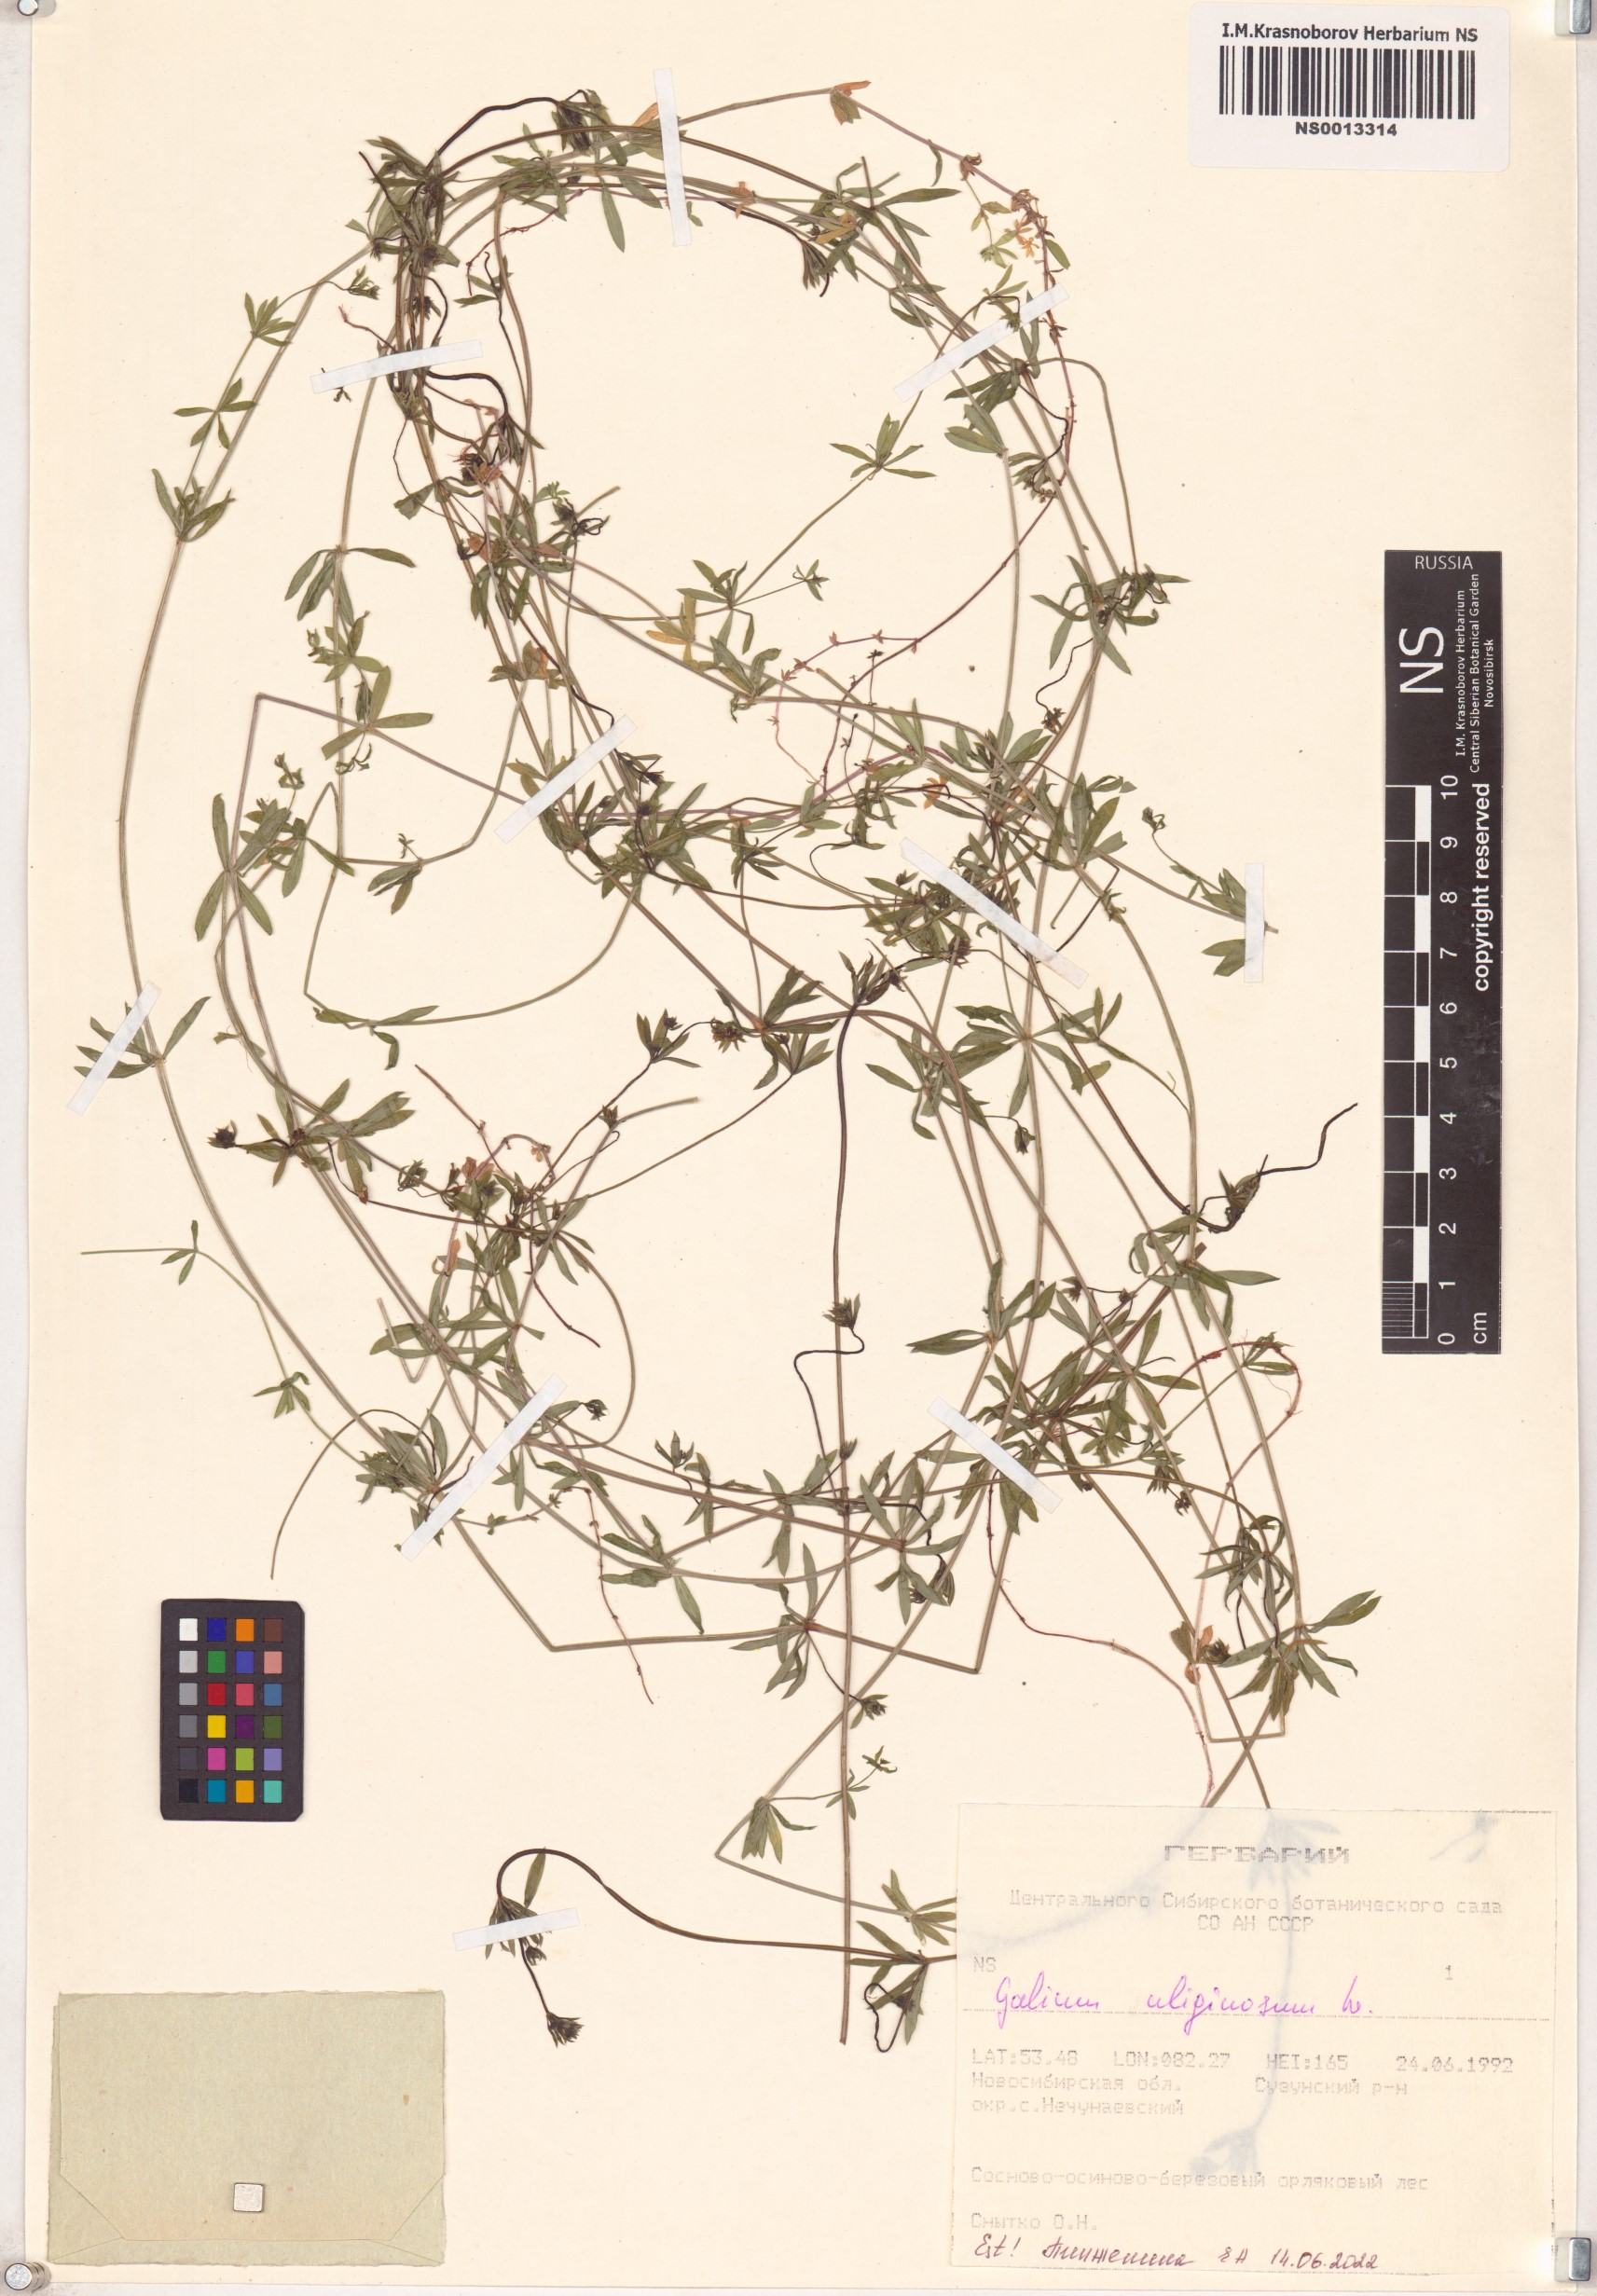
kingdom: Plantae
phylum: Tracheophyta
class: Magnoliopsida
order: Gentianales
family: Rubiaceae
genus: Galium
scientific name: Galium uliginosum
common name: Fen bedstraw
